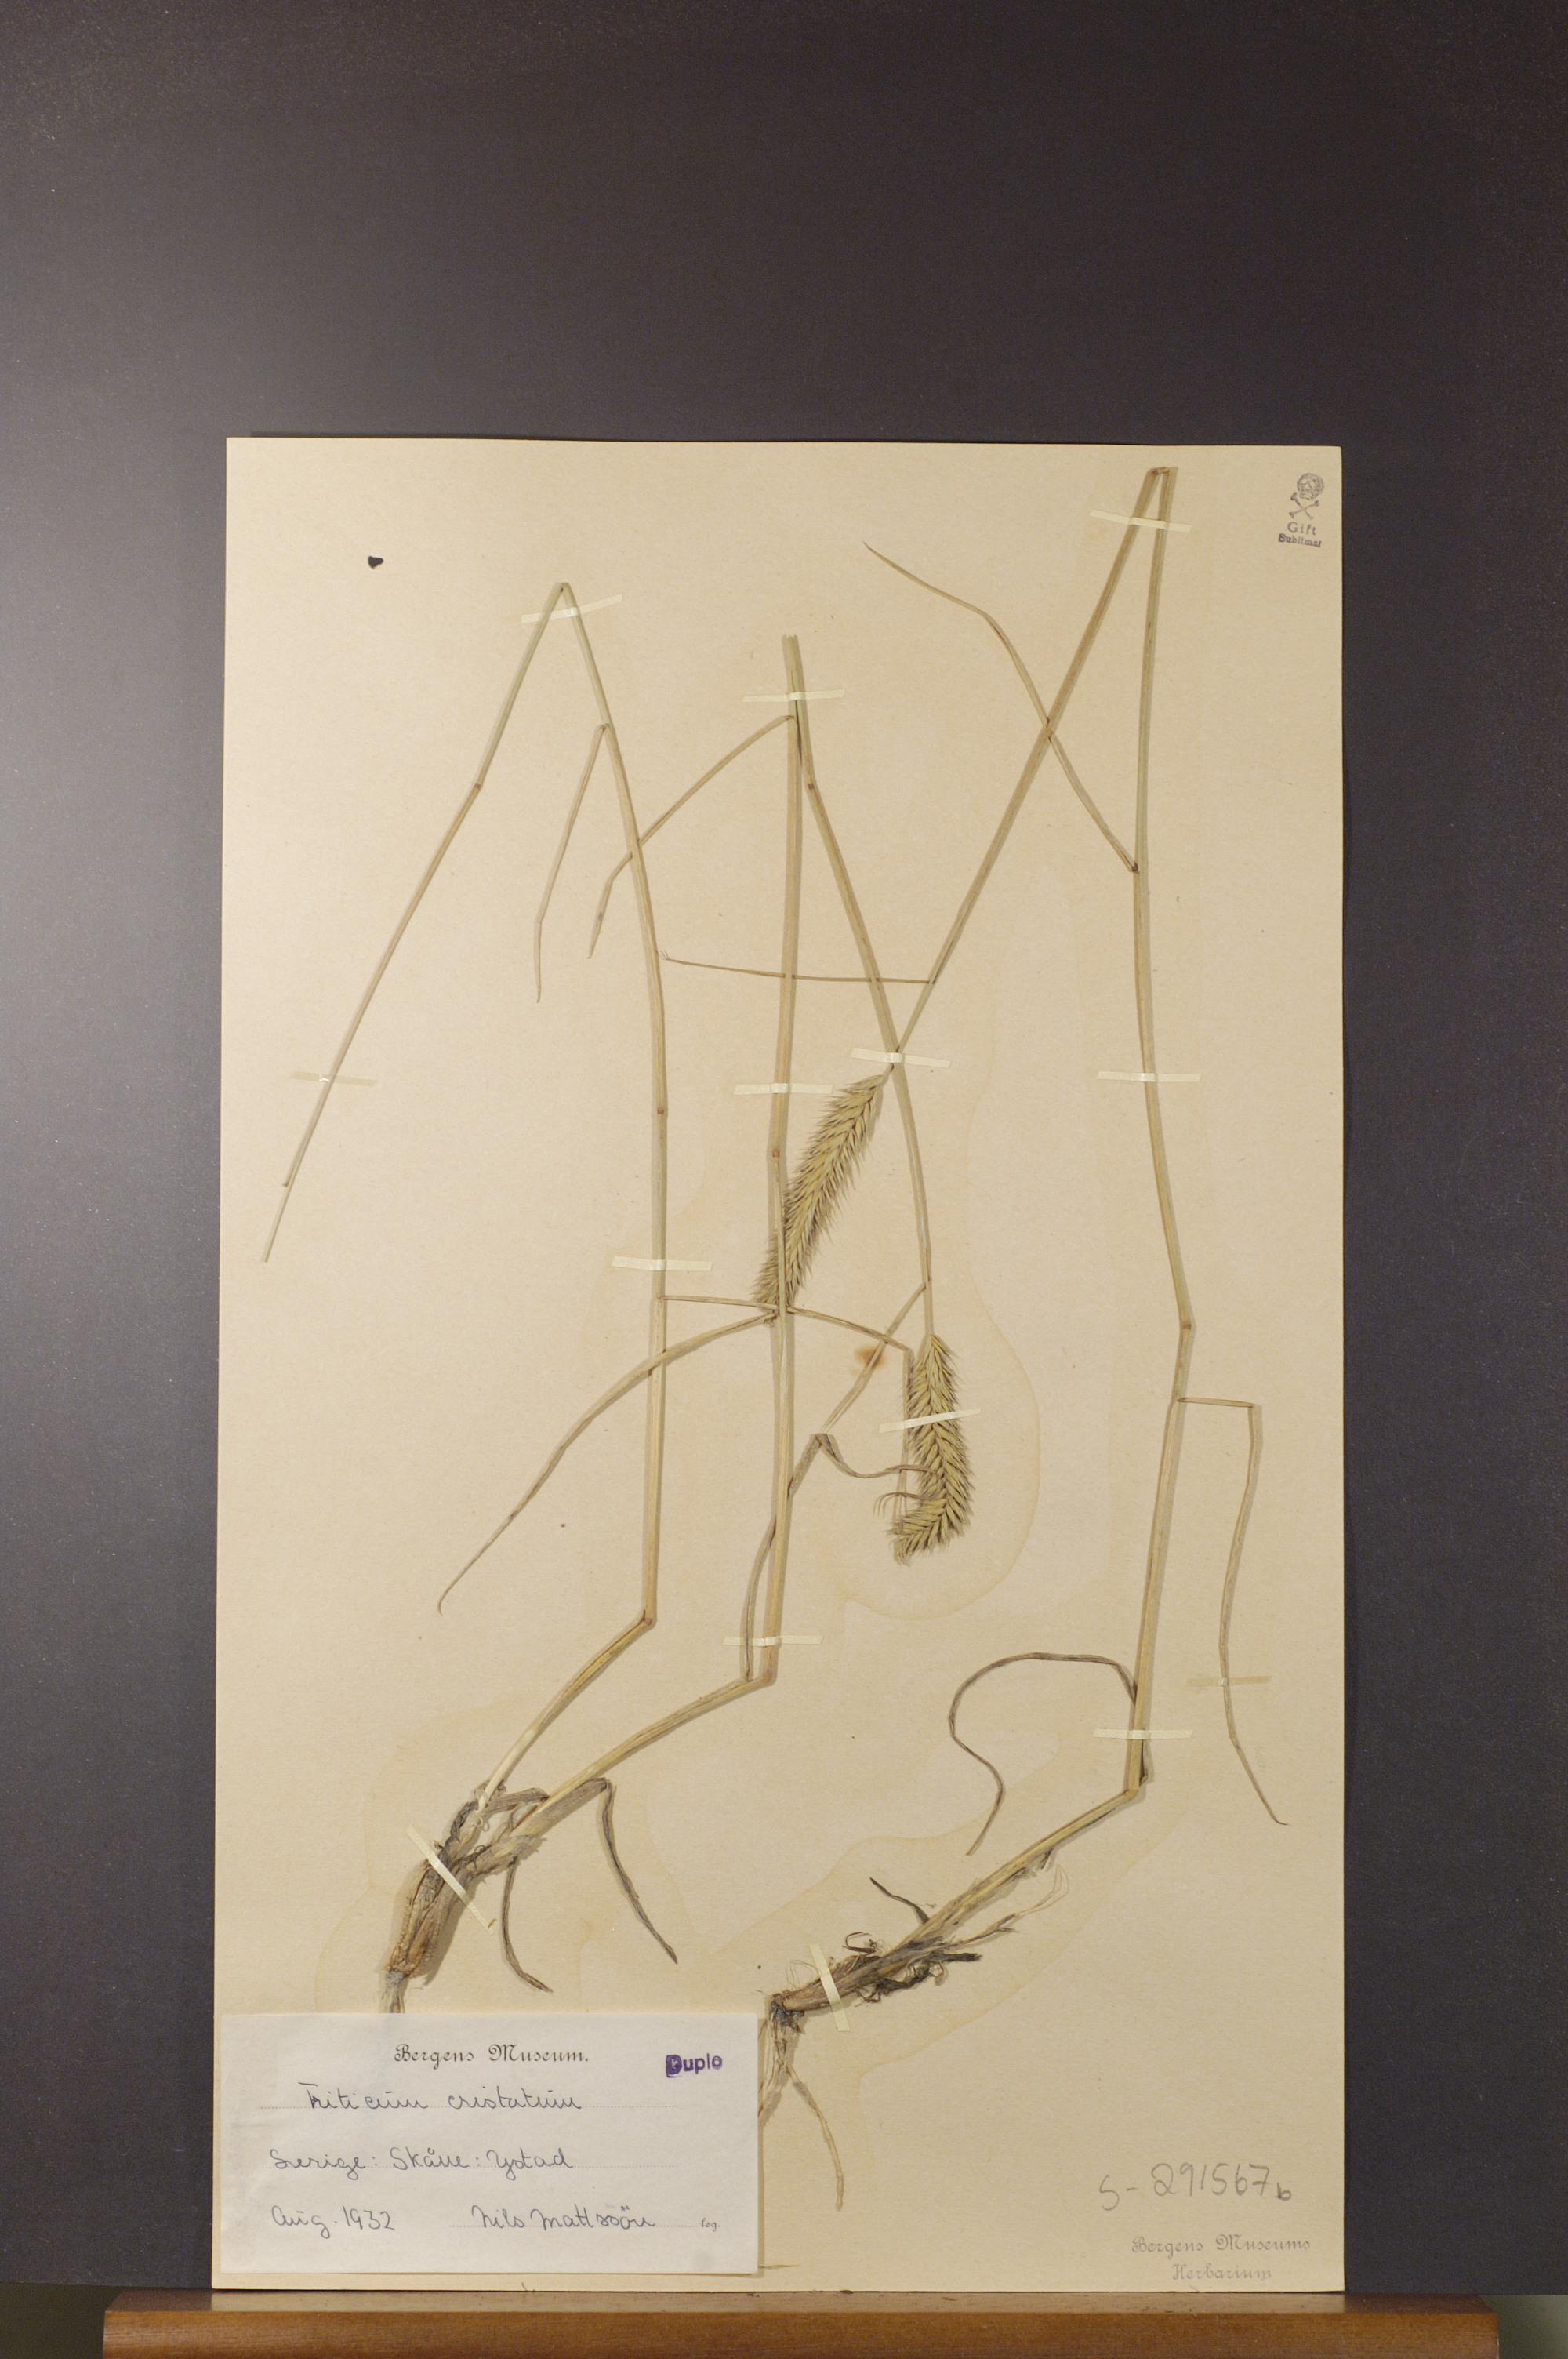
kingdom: Plantae
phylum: Tracheophyta
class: Liliopsida
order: Poales
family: Poaceae
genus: Agropyron
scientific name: Agropyron cristatum
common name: Crested wheatgrass
